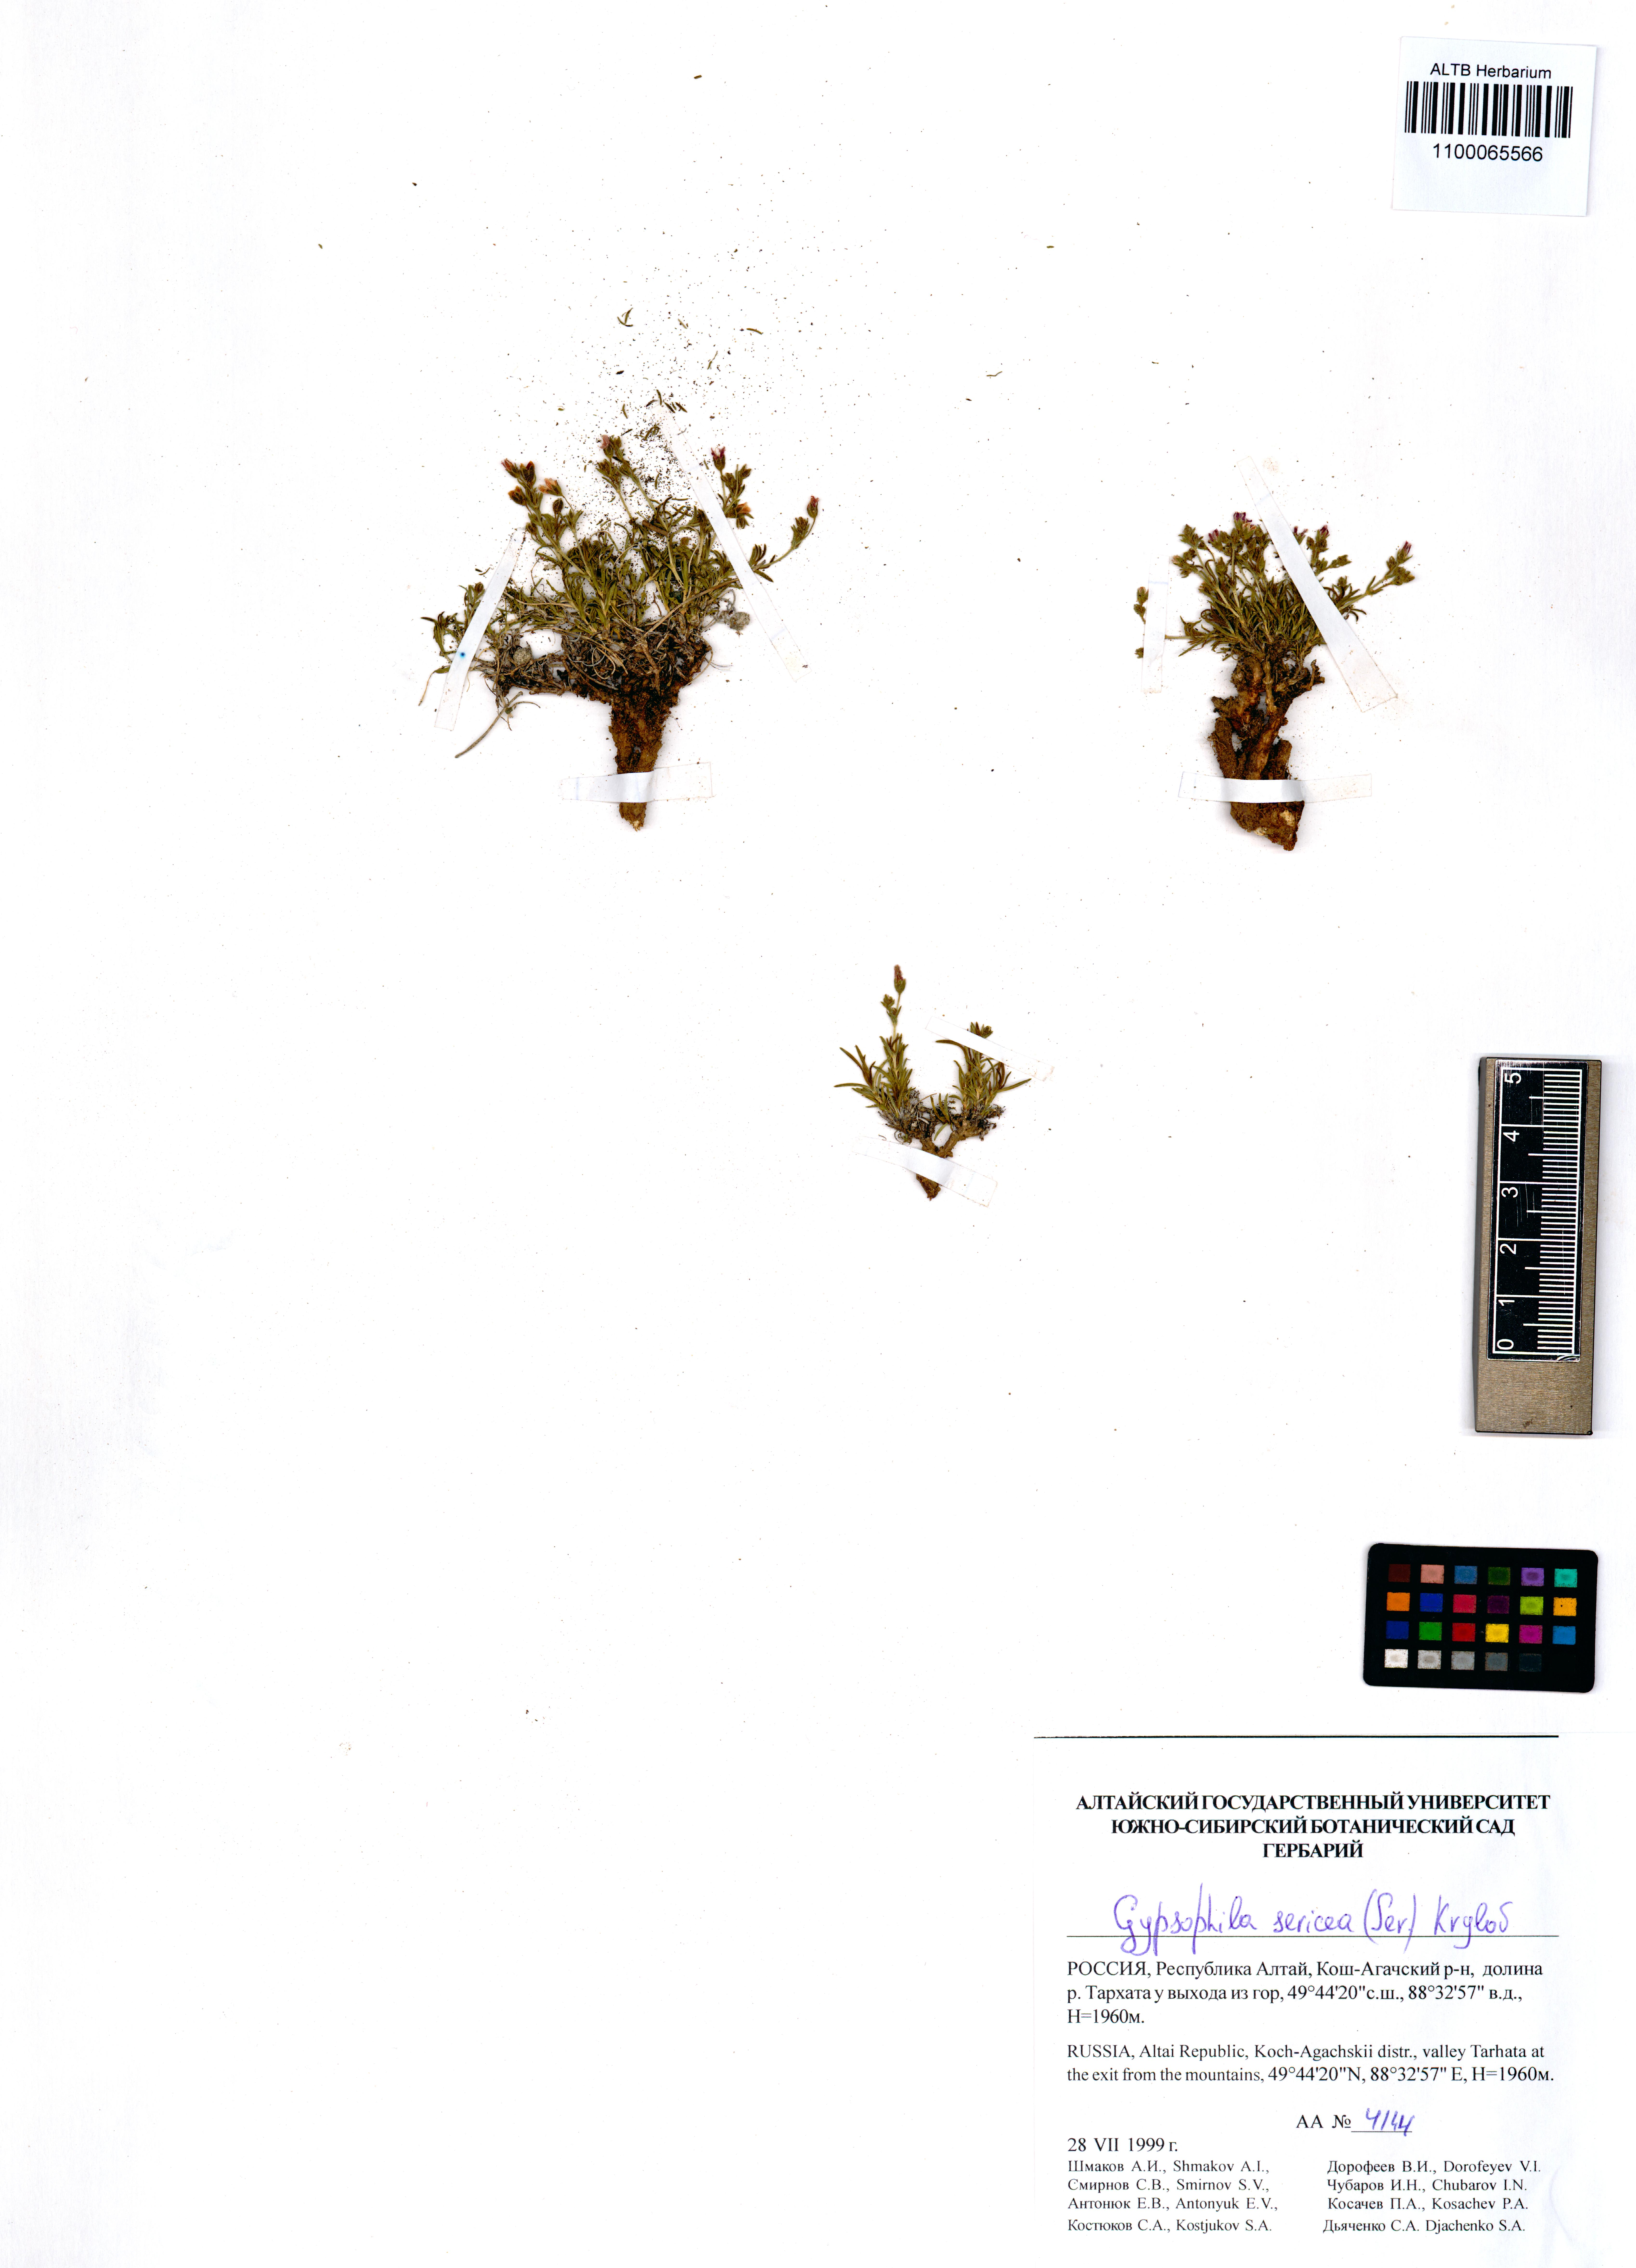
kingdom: Plantae
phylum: Tracheophyta
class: Magnoliopsida
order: Caryophyllales
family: Caryophyllaceae
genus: Heterochroa
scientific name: Heterochroa petraea
